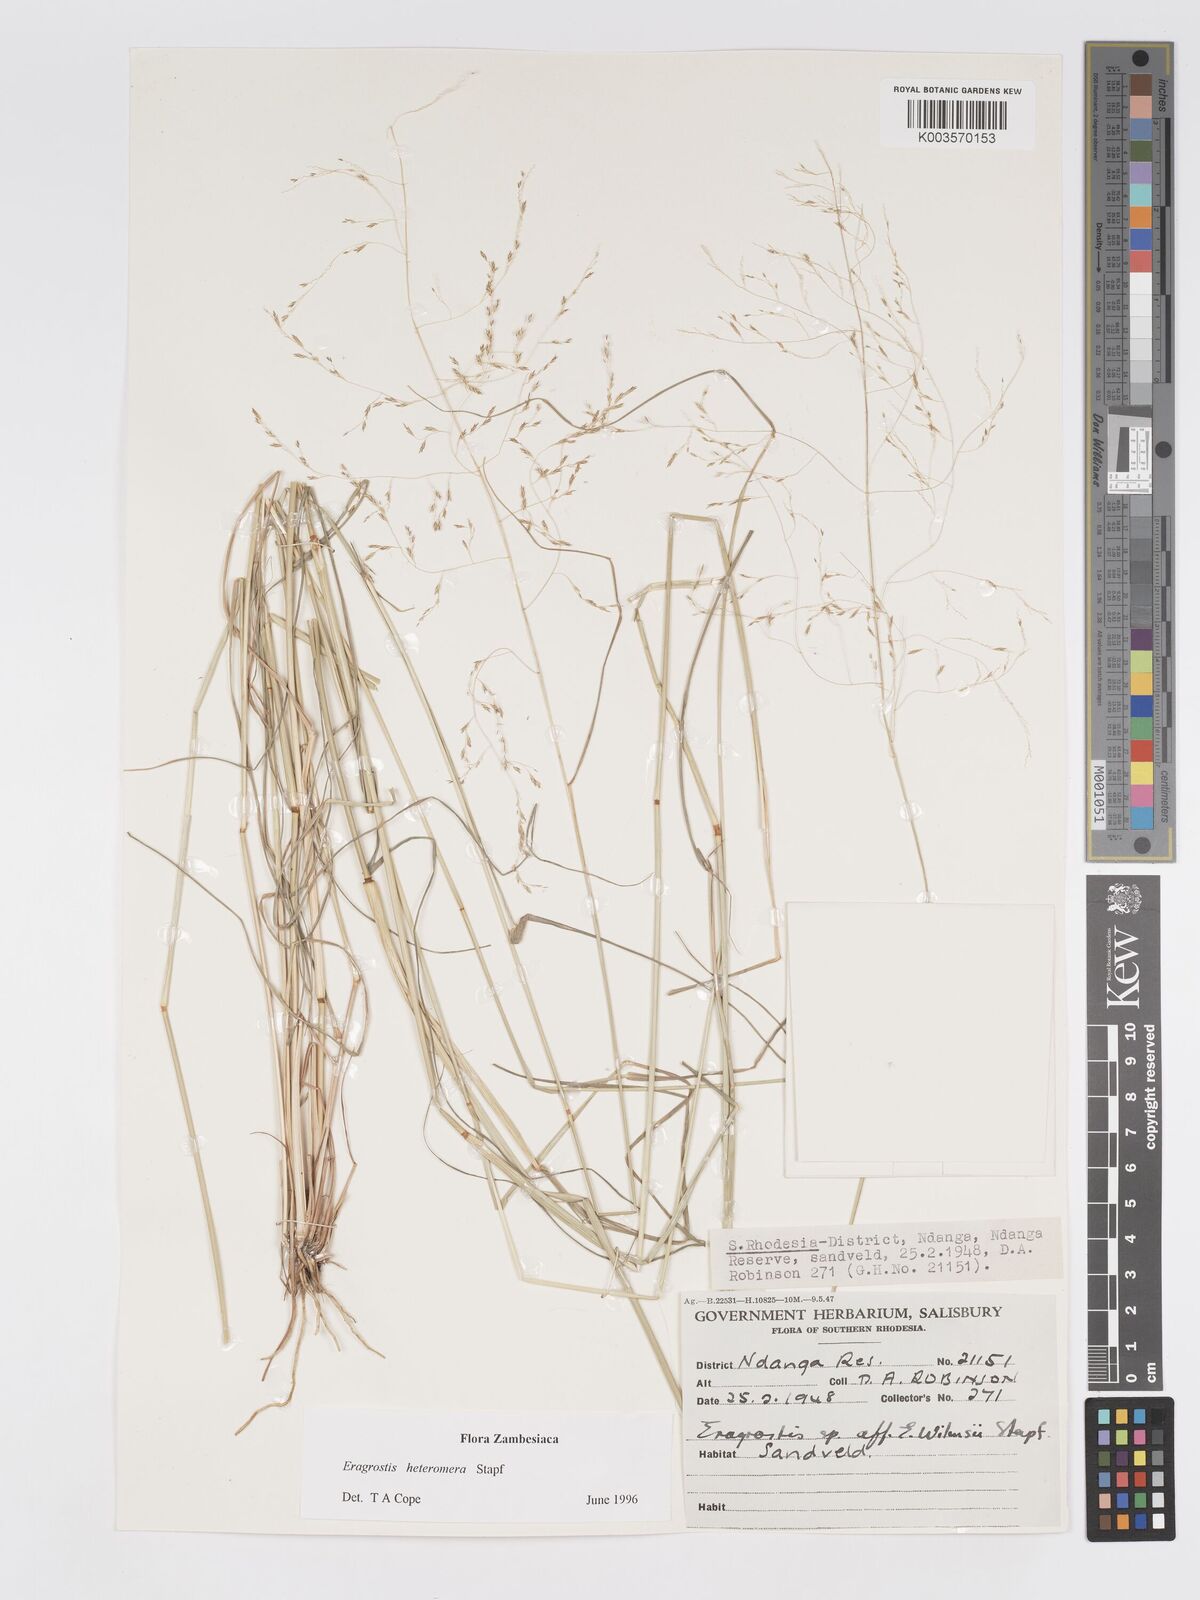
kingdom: Plantae
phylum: Tracheophyta
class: Liliopsida
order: Poales
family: Poaceae
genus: Eragrostis
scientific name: Eragrostis heteromera
